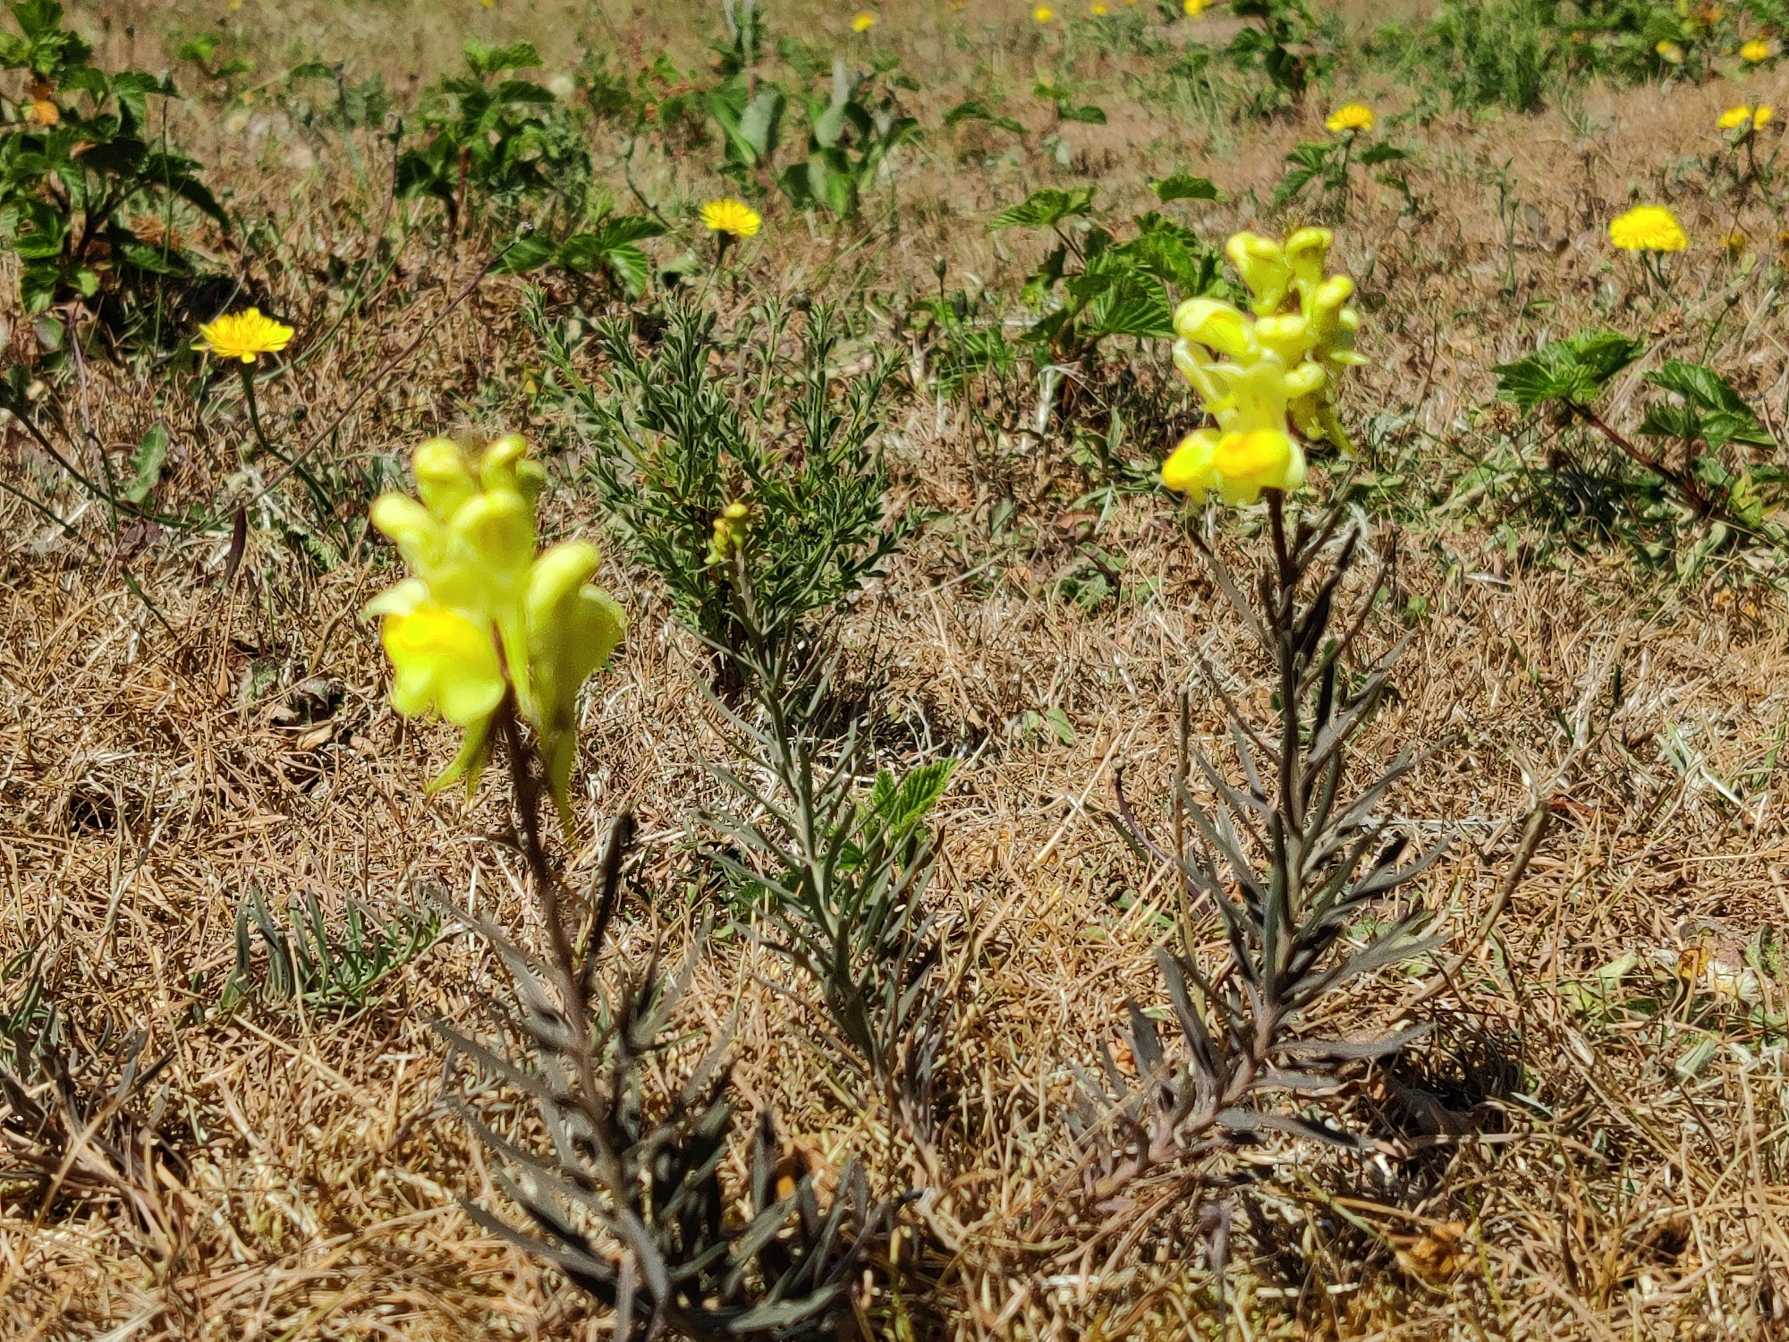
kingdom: Plantae
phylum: Tracheophyta
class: Magnoliopsida
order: Lamiales
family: Plantaginaceae
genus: Linaria
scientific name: Linaria vulgaris
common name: Almindelig torskemund
